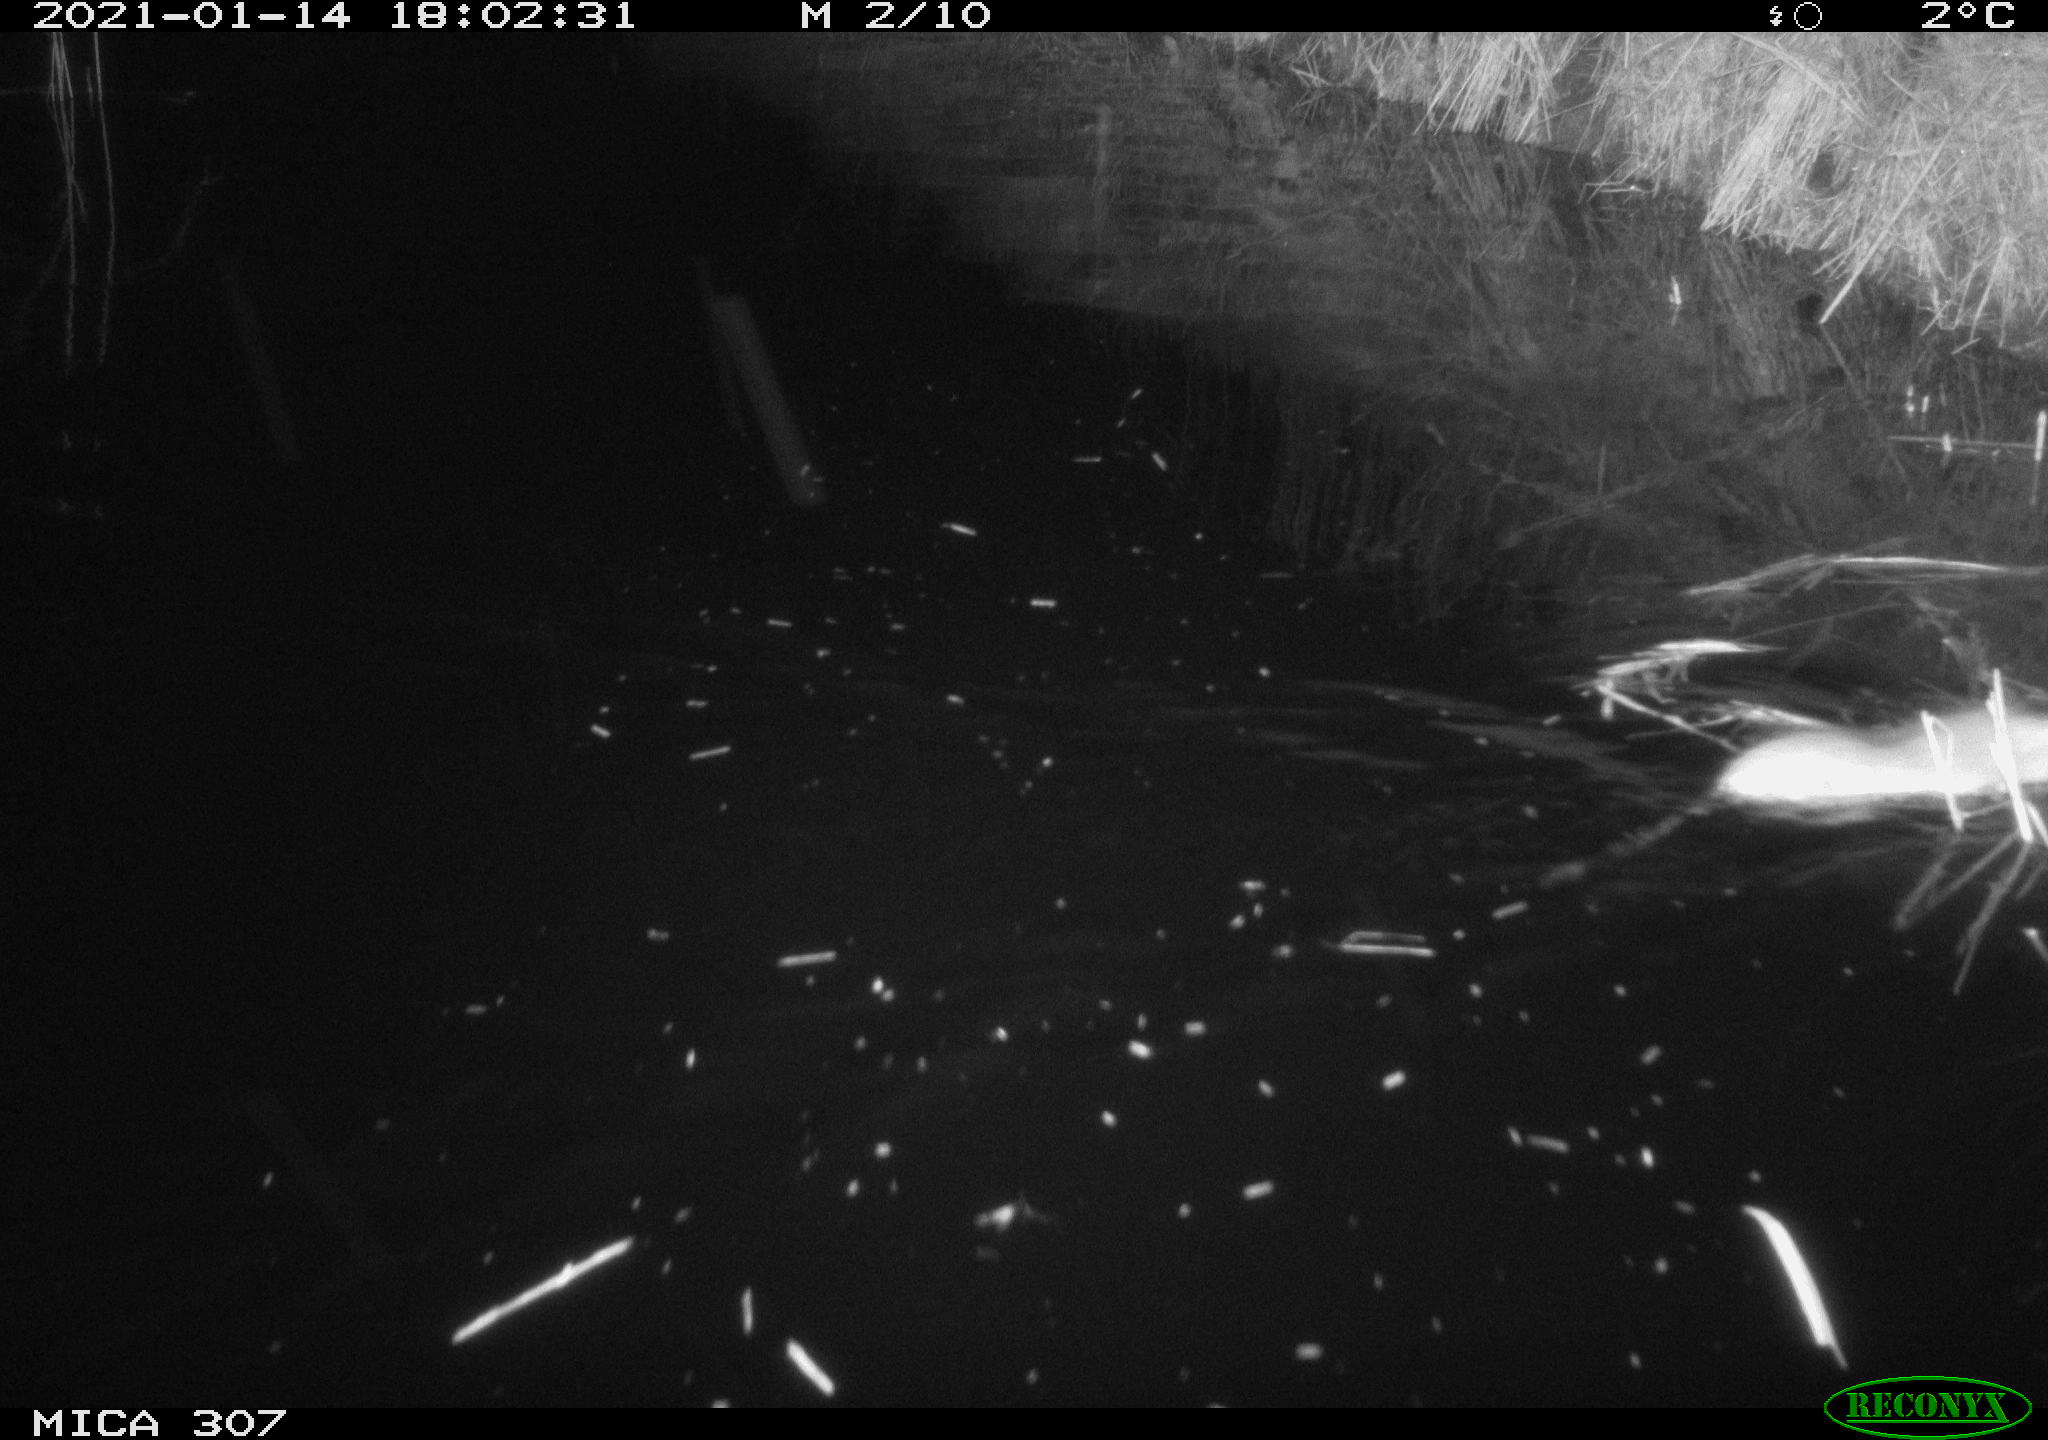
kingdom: Animalia
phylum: Chordata
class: Mammalia
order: Rodentia
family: Muridae
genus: Rattus
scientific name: Rattus norvegicus
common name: Brown rat
